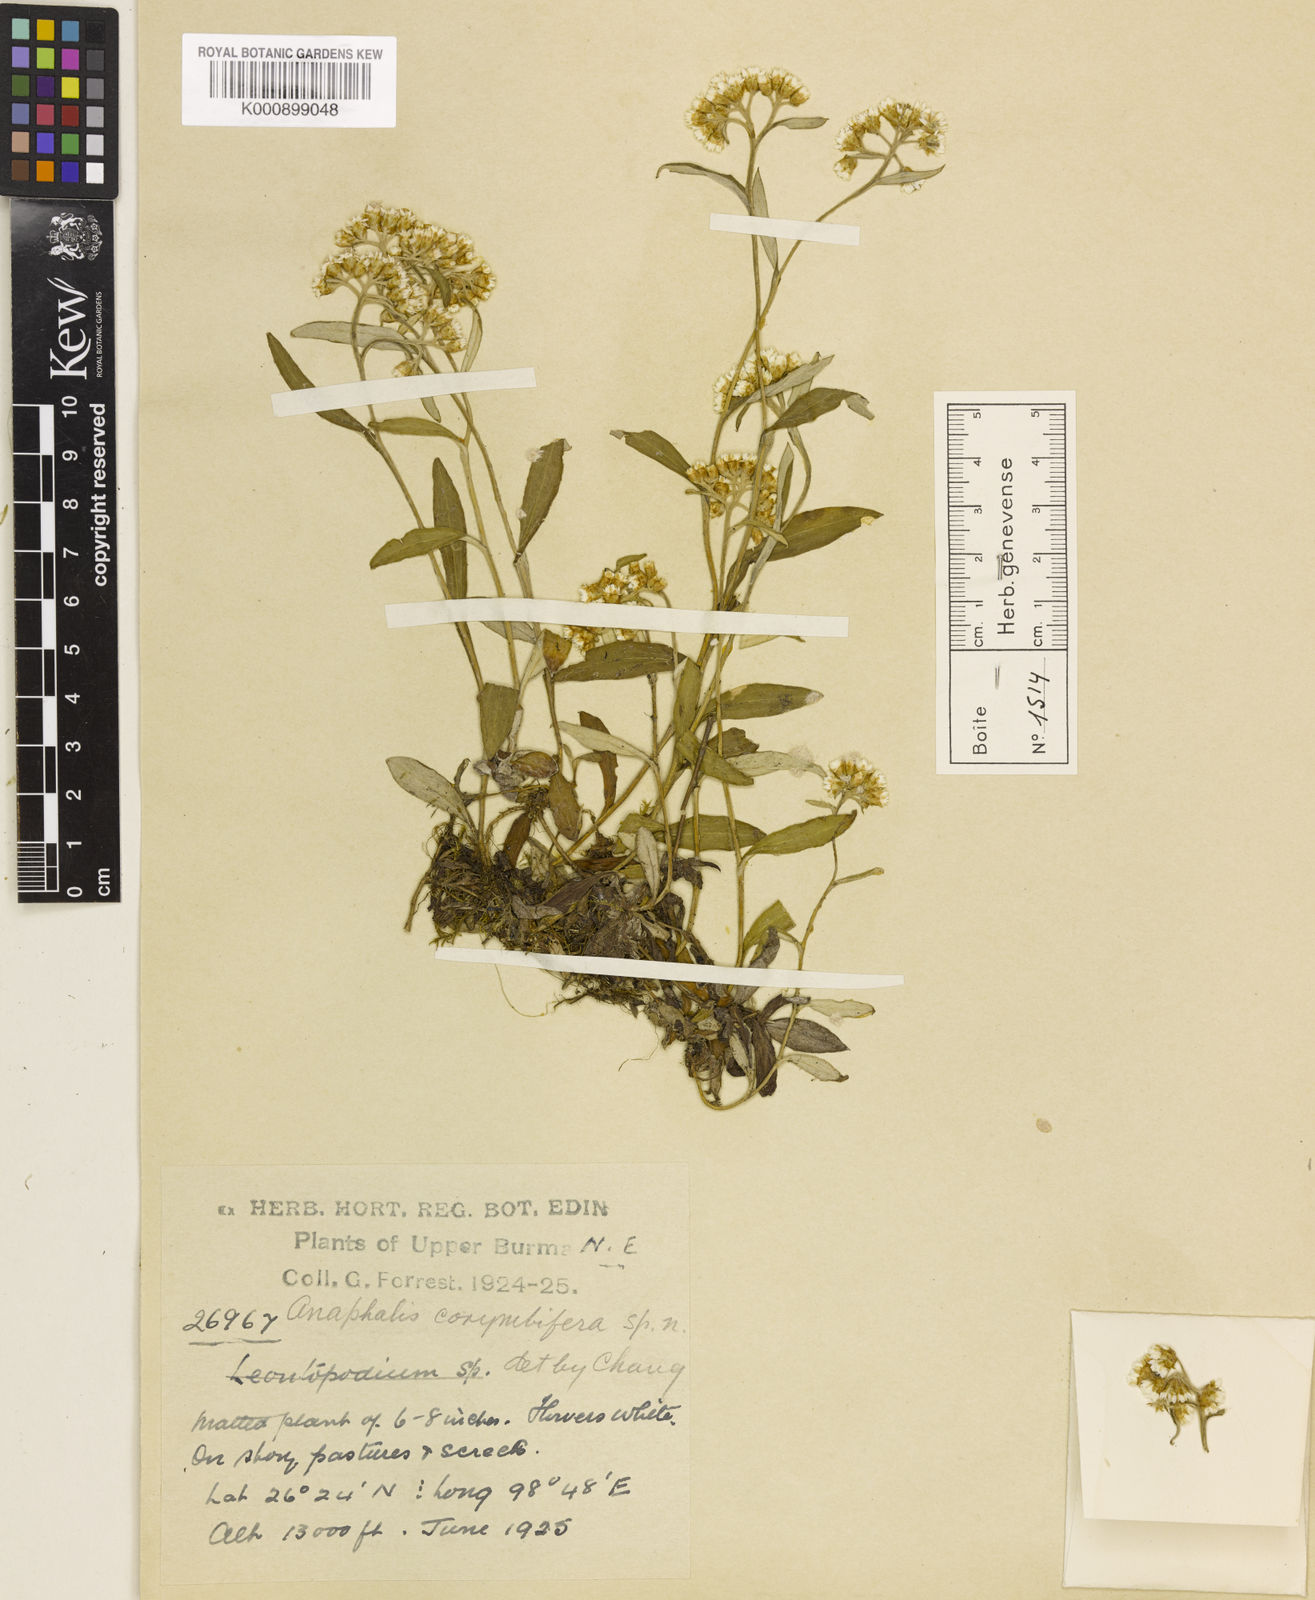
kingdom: Plantae
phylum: Tracheophyta
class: Magnoliopsida
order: Asterales
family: Asteraceae
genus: Anaphalis
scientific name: Anaphalis corymbifera
